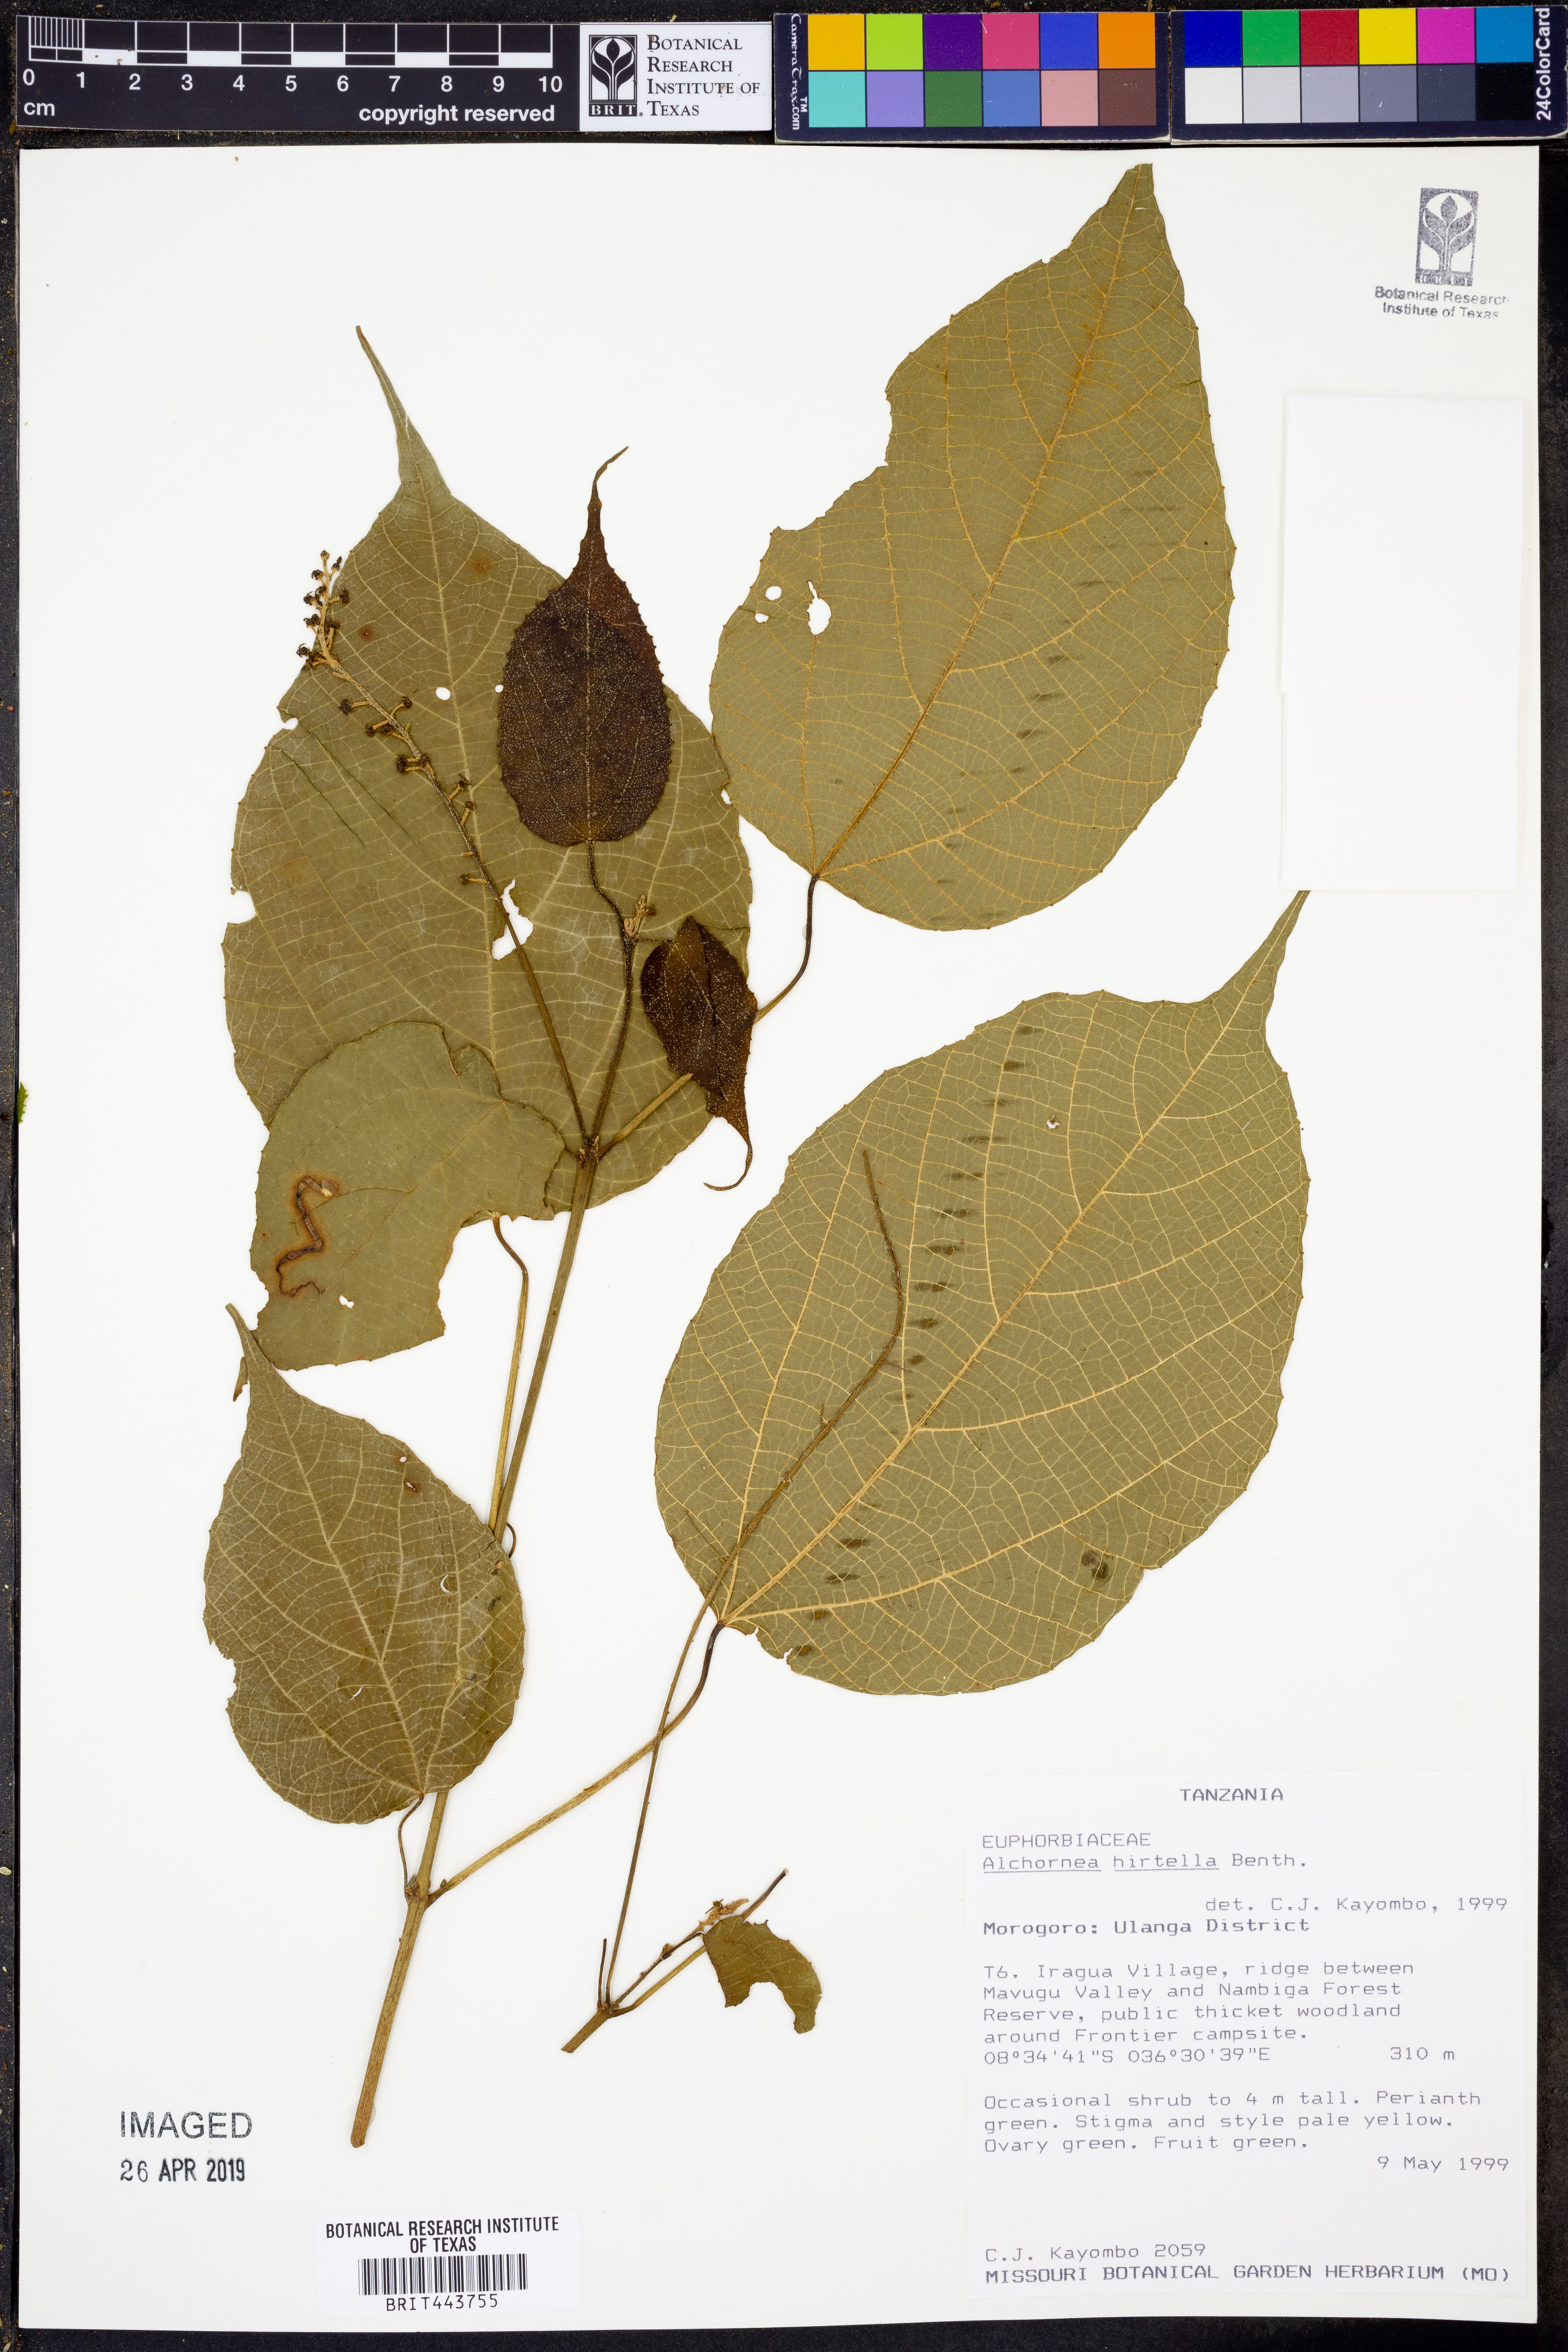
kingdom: Plantae
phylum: Tracheophyta
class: Magnoliopsida
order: Malpighiales
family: Euphorbiaceae
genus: Alchornea
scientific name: Alchornea hirtella
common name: Forest bead-string
